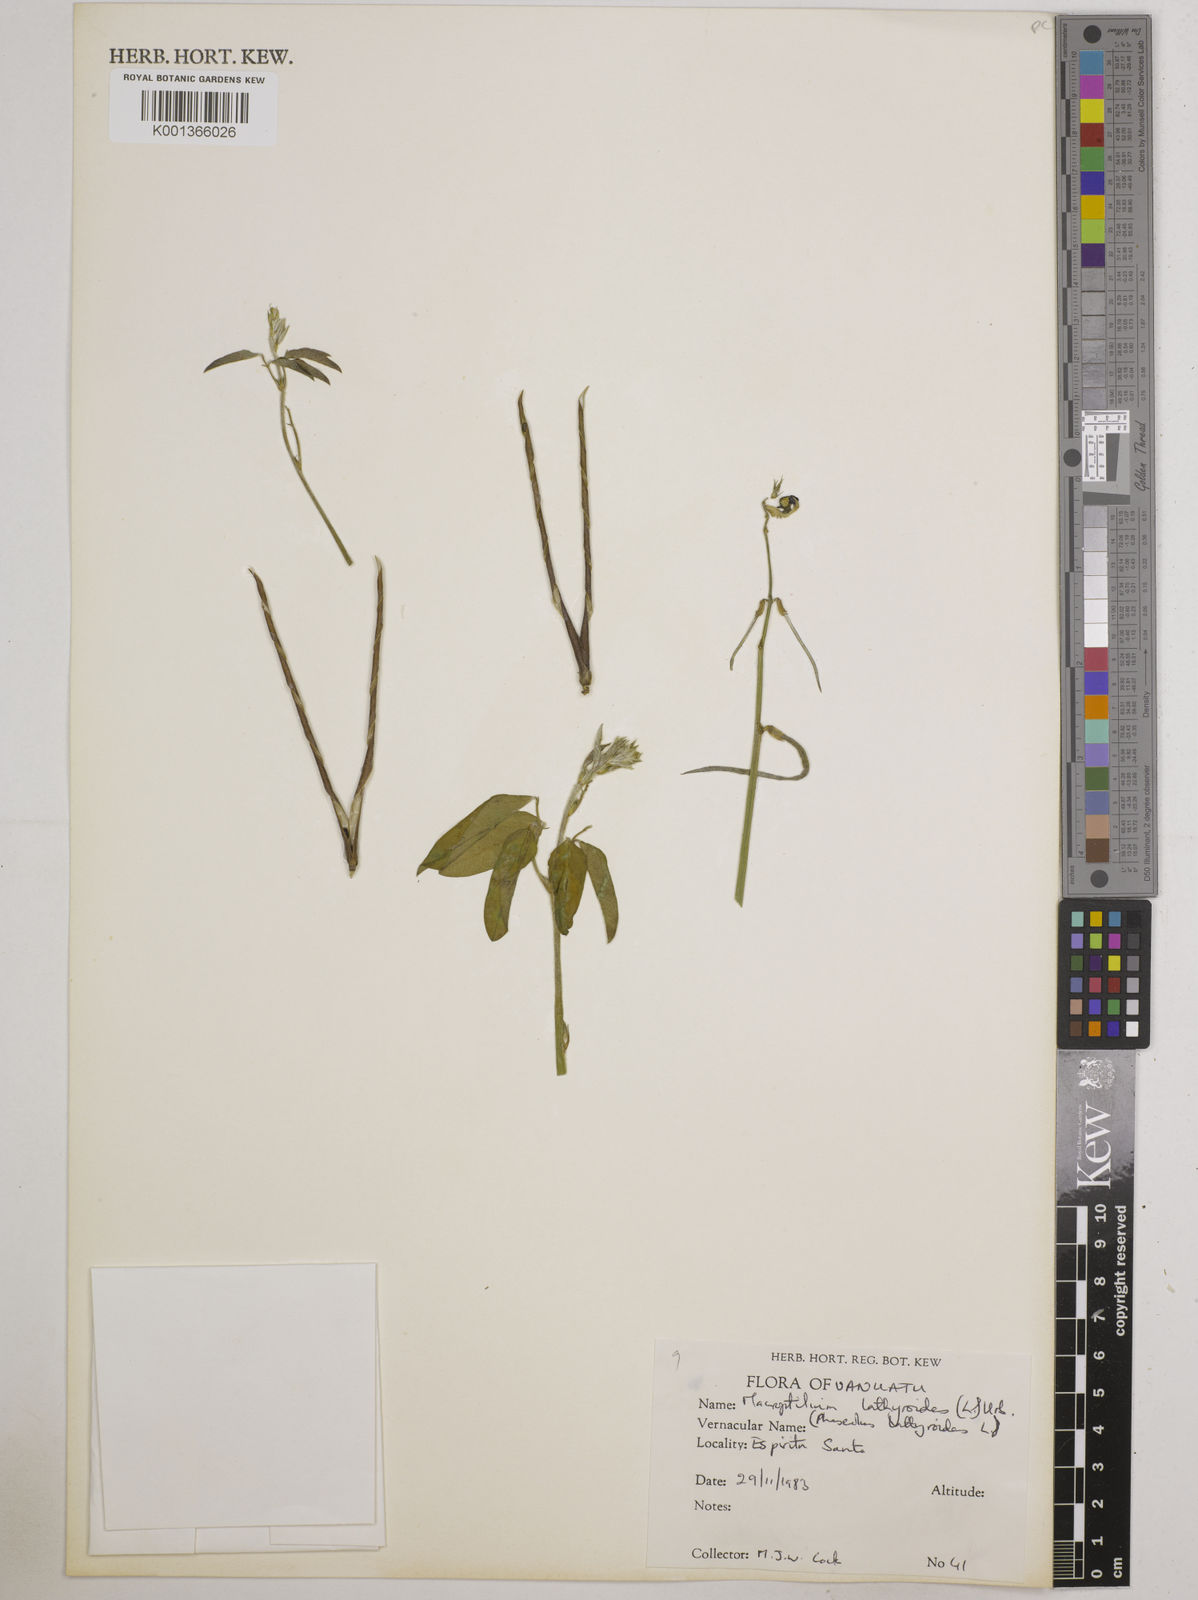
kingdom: Plantae
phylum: Tracheophyta
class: Magnoliopsida
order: Fabales
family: Fabaceae
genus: Macroptilium
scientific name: Macroptilium lathyroides
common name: Wild bushbean
